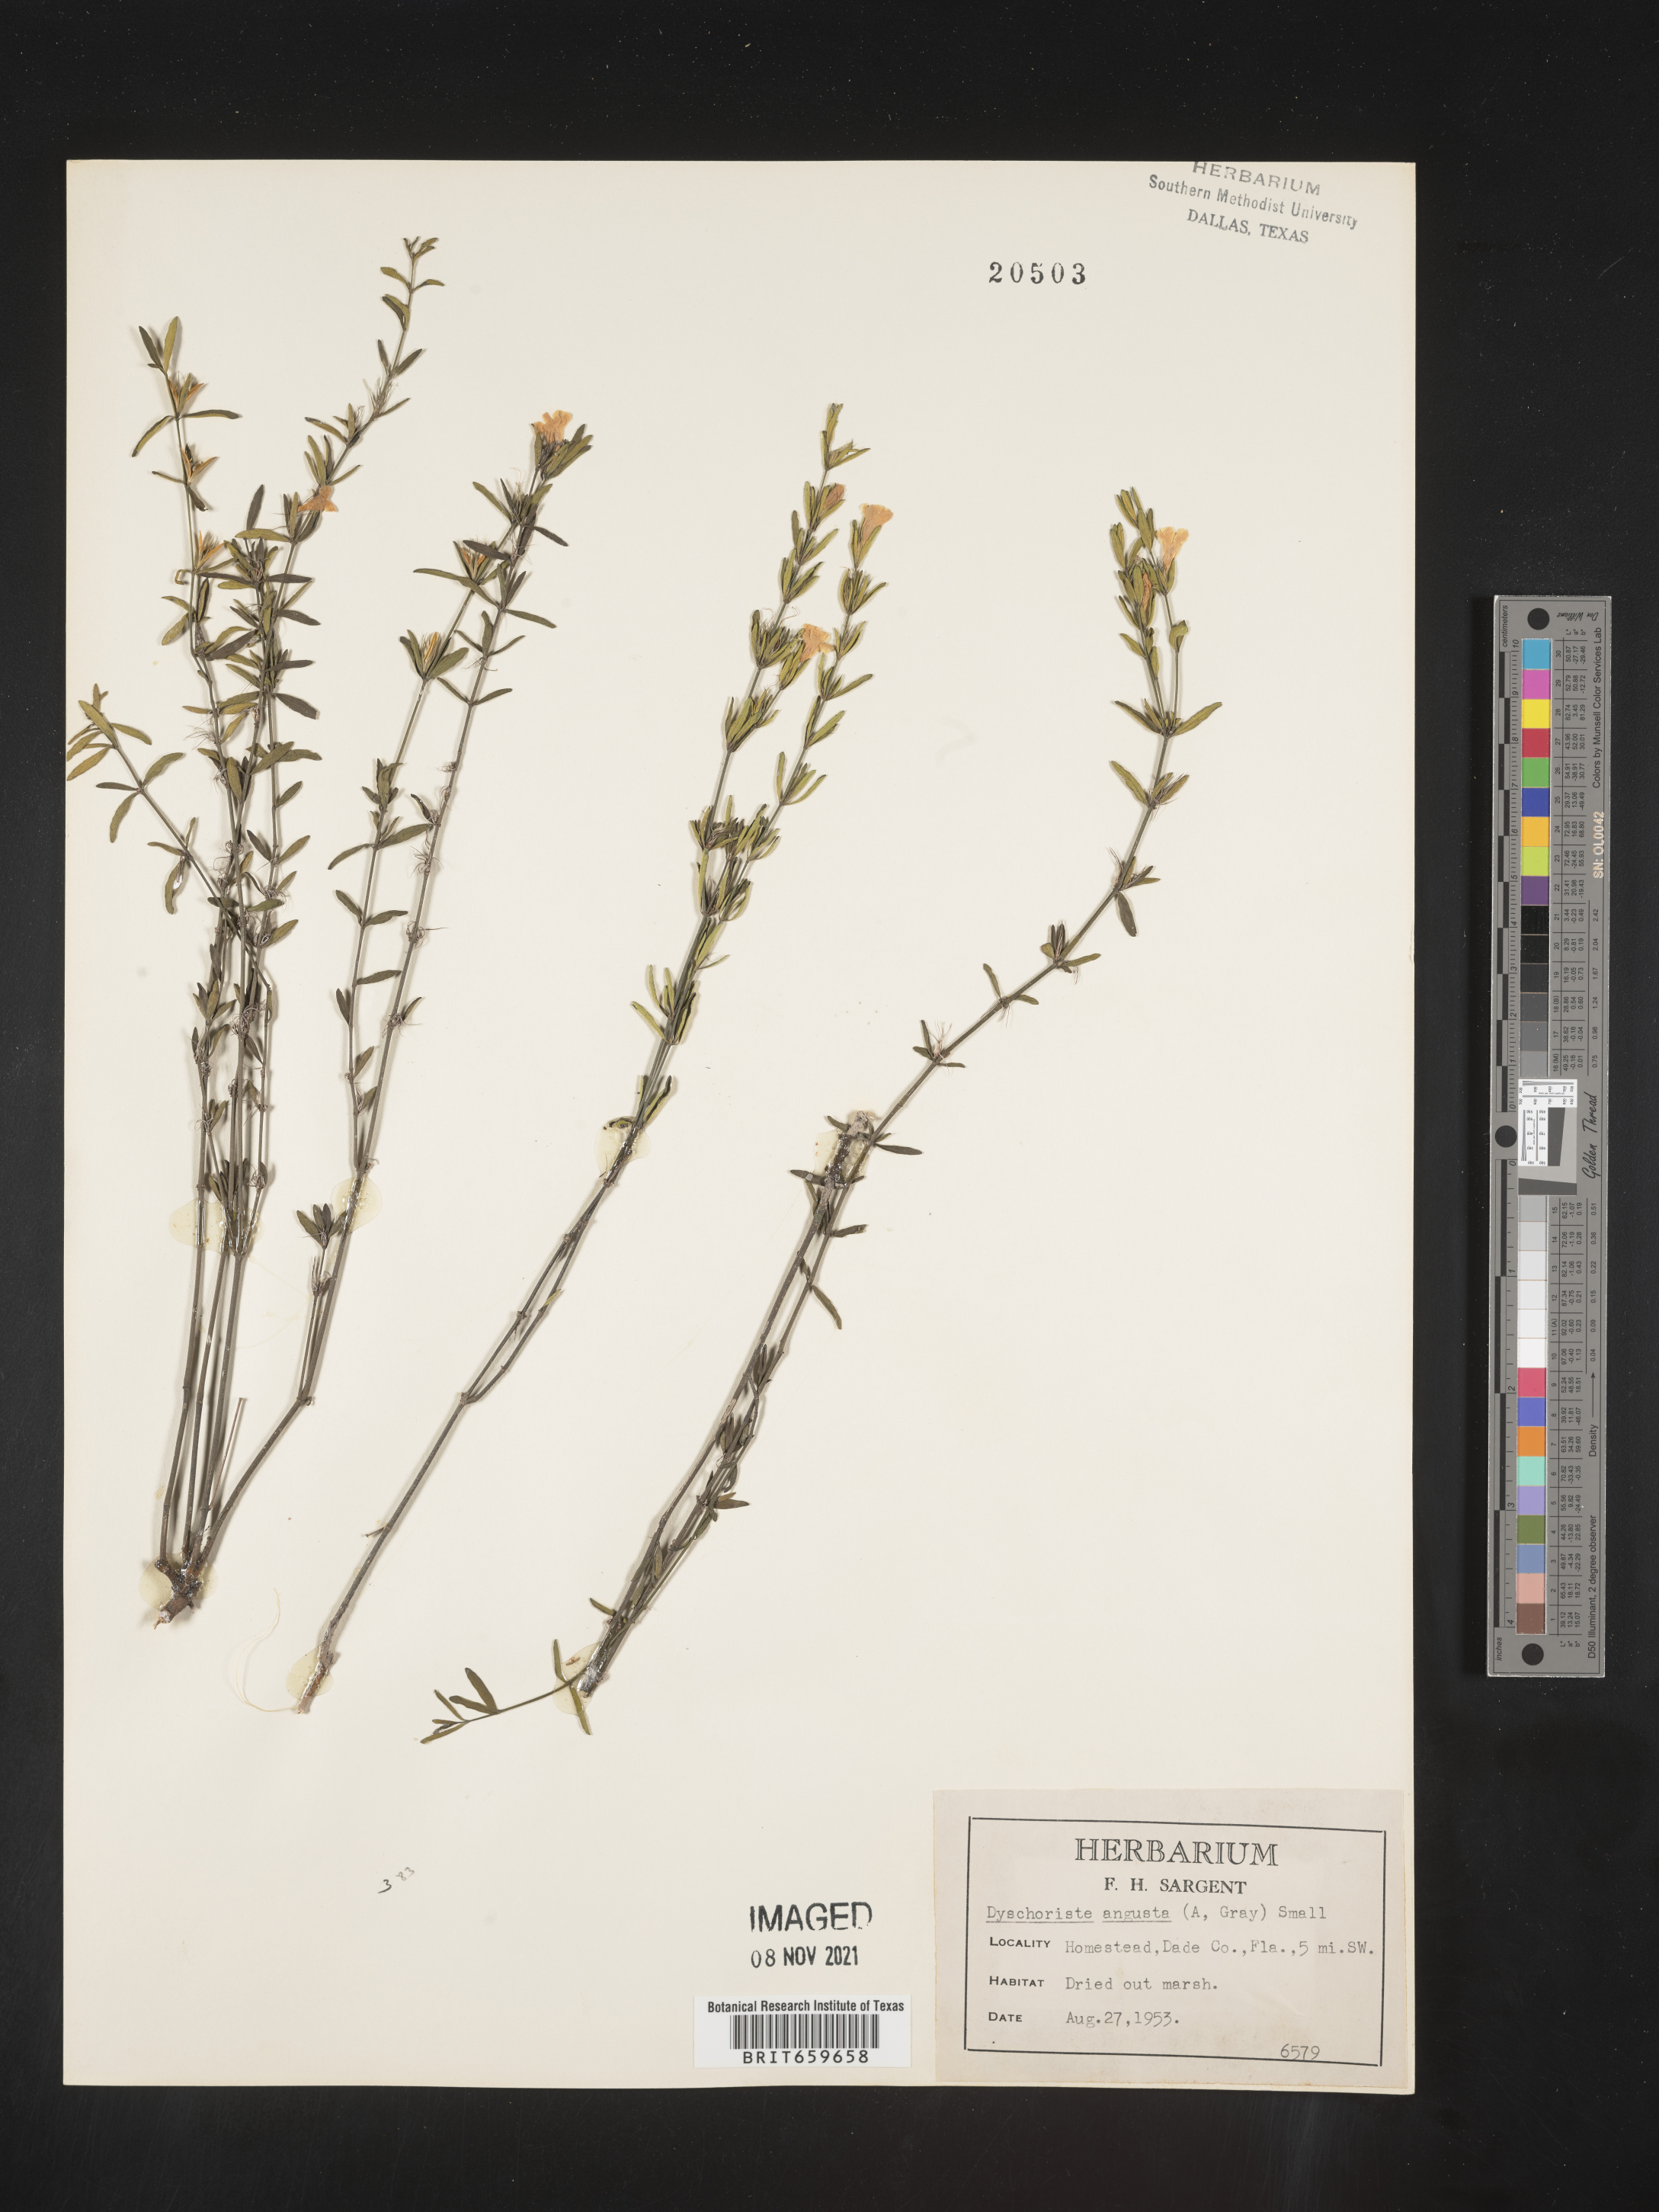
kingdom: Plantae
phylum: Tracheophyta
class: Magnoliopsida
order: Lamiales
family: Acanthaceae
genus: Dyschoriste
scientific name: Dyschoriste angusta
